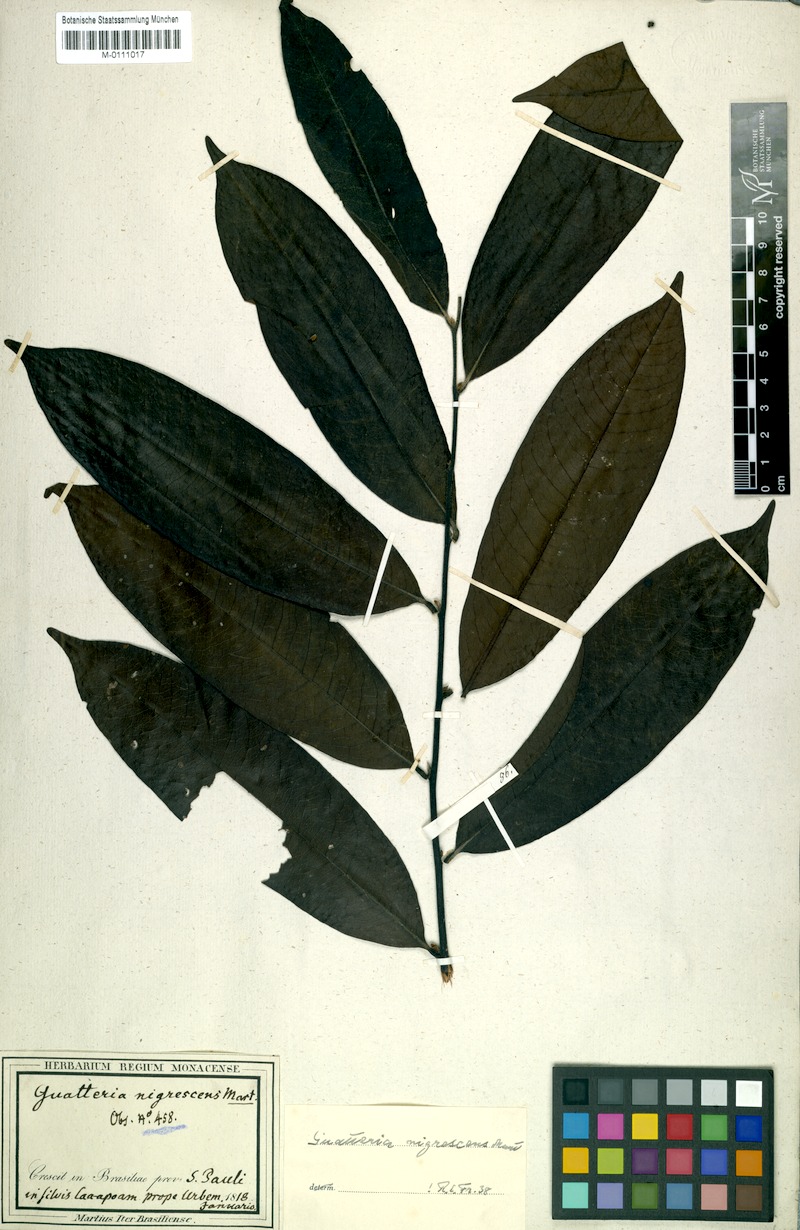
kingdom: Plantae
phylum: Tracheophyta
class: Magnoliopsida
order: Magnoliales
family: Annonaceae
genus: Guatteria
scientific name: Guatteria australis
